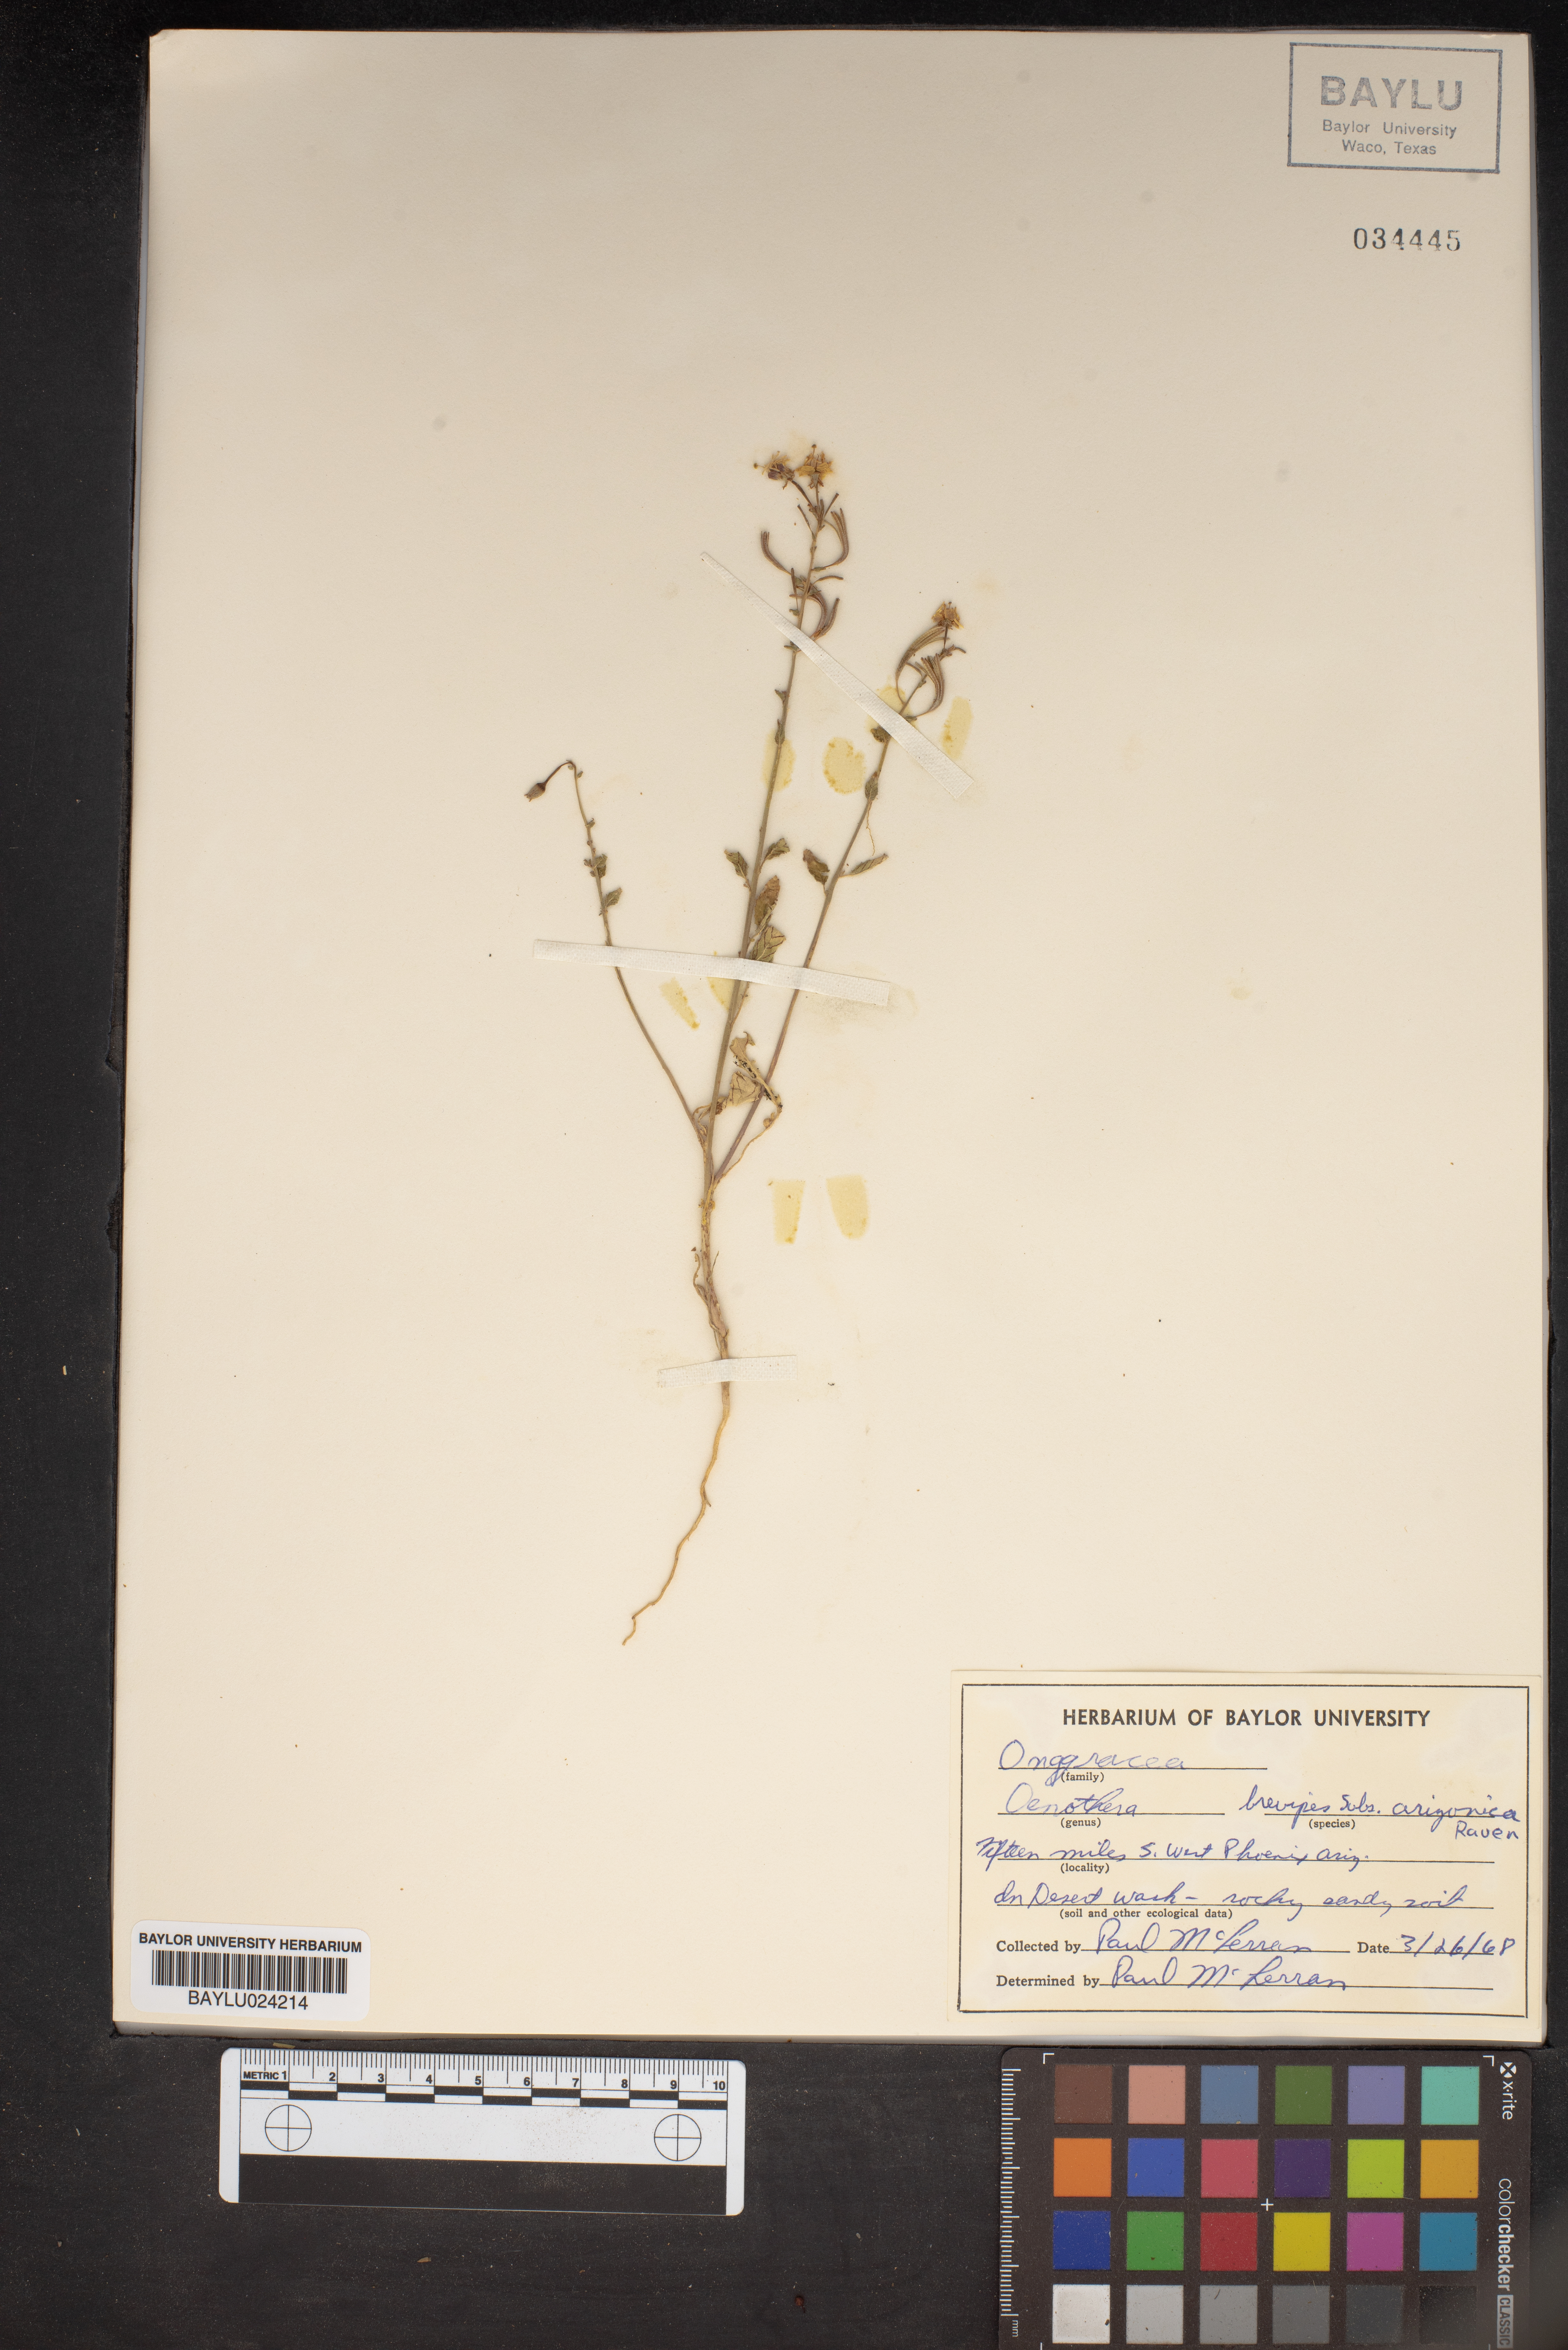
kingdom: Plantae
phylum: Tracheophyta
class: Magnoliopsida
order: Myrtales
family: Onagraceae
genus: Chylismia
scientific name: Chylismia brevipes
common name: Yellow cups
